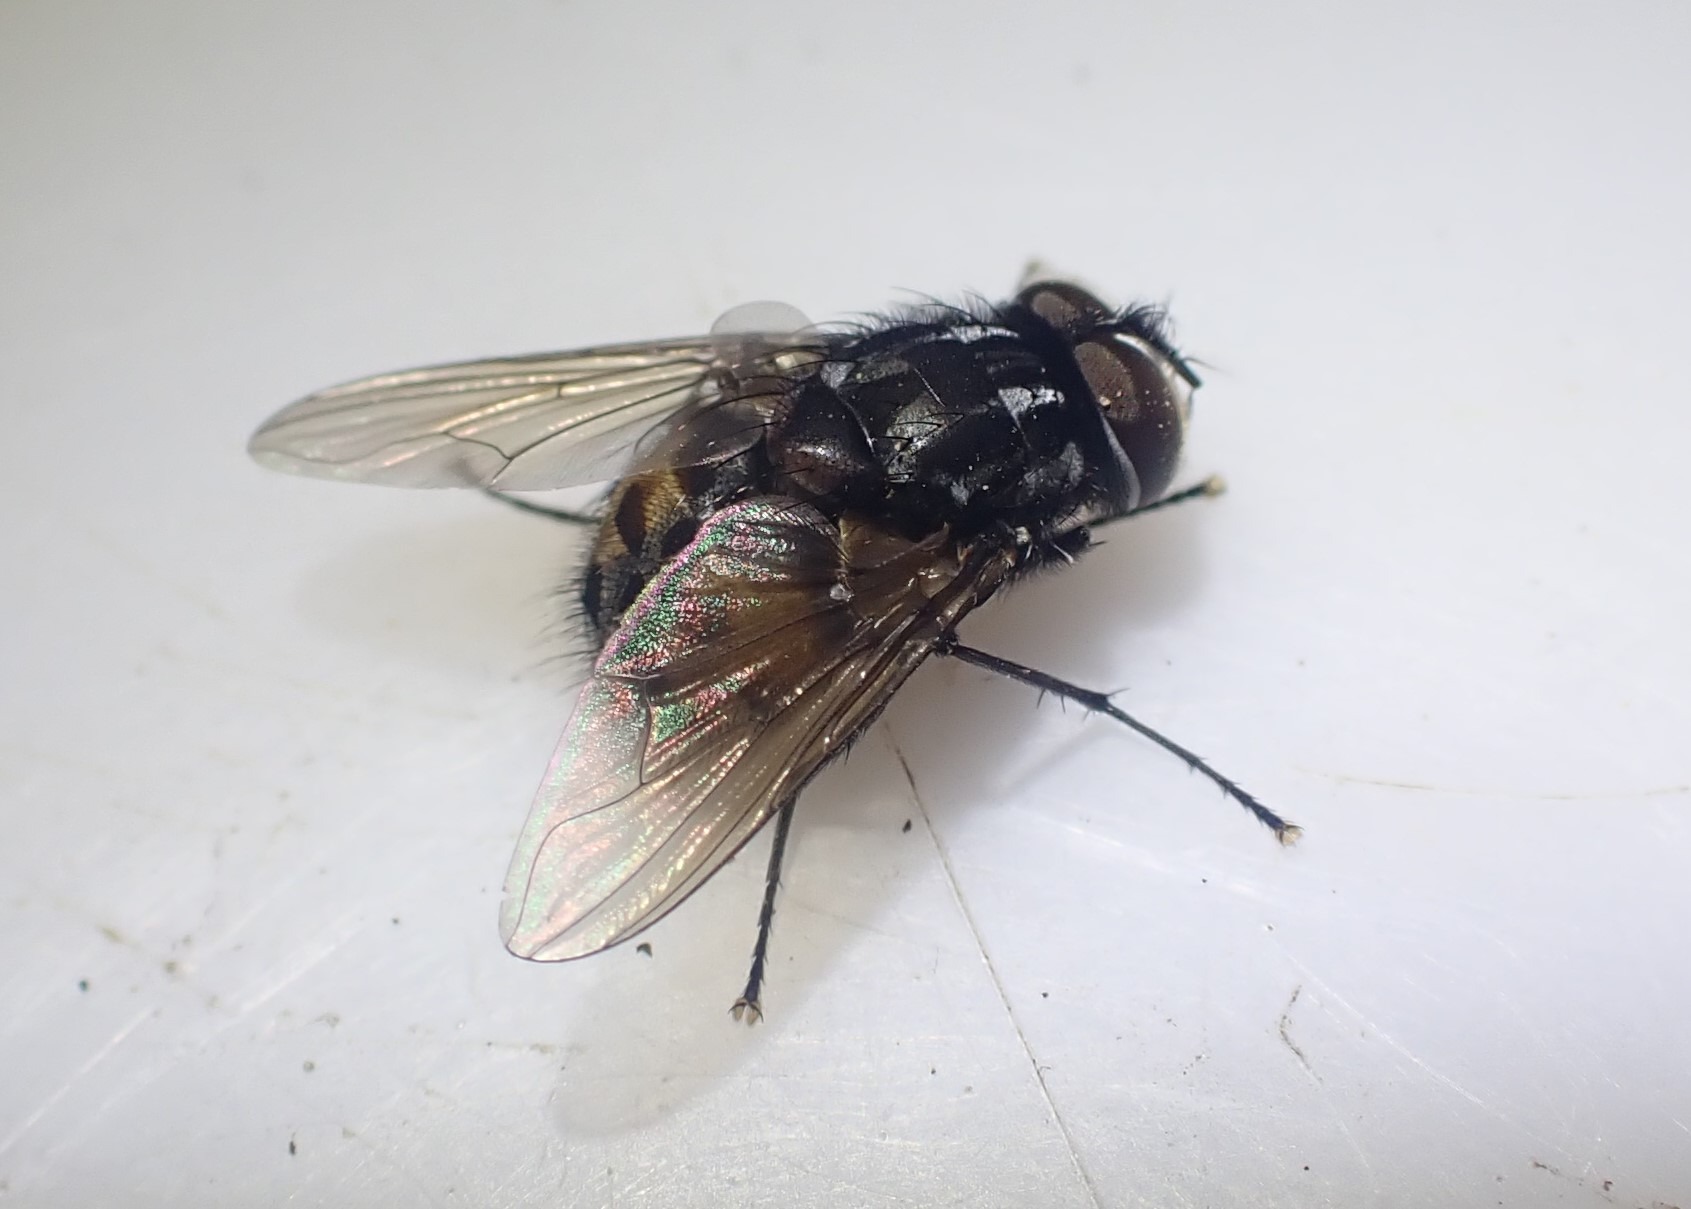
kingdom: Animalia
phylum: Arthropoda
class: Insecta
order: Diptera
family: Muscidae
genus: Graphomya
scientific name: Graphomya maculata
